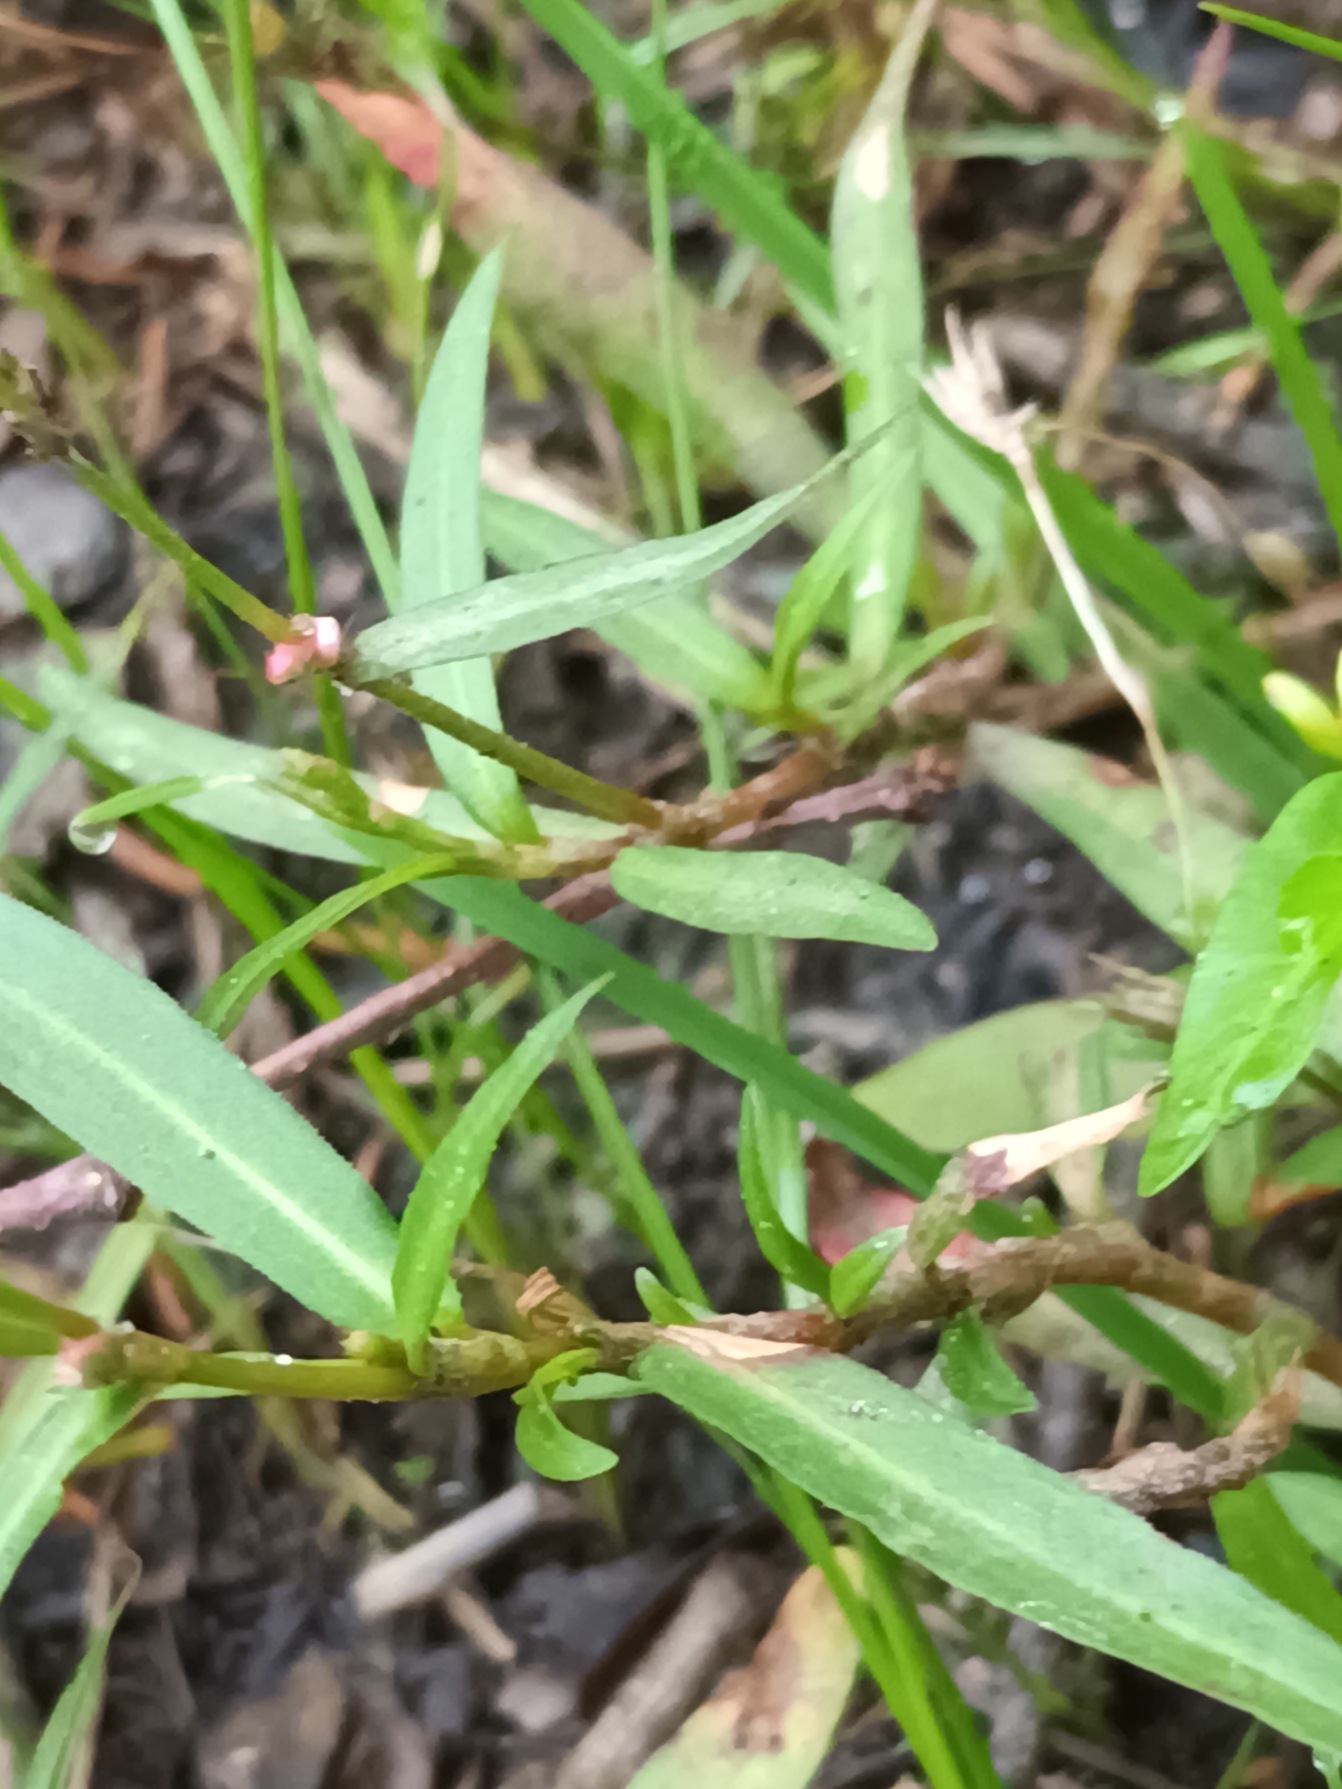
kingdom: Plantae
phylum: Tracheophyta
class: Magnoliopsida
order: Caryophyllales
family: Polygonaceae
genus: Persicaria
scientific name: Persicaria minor
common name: Liden pileurt
